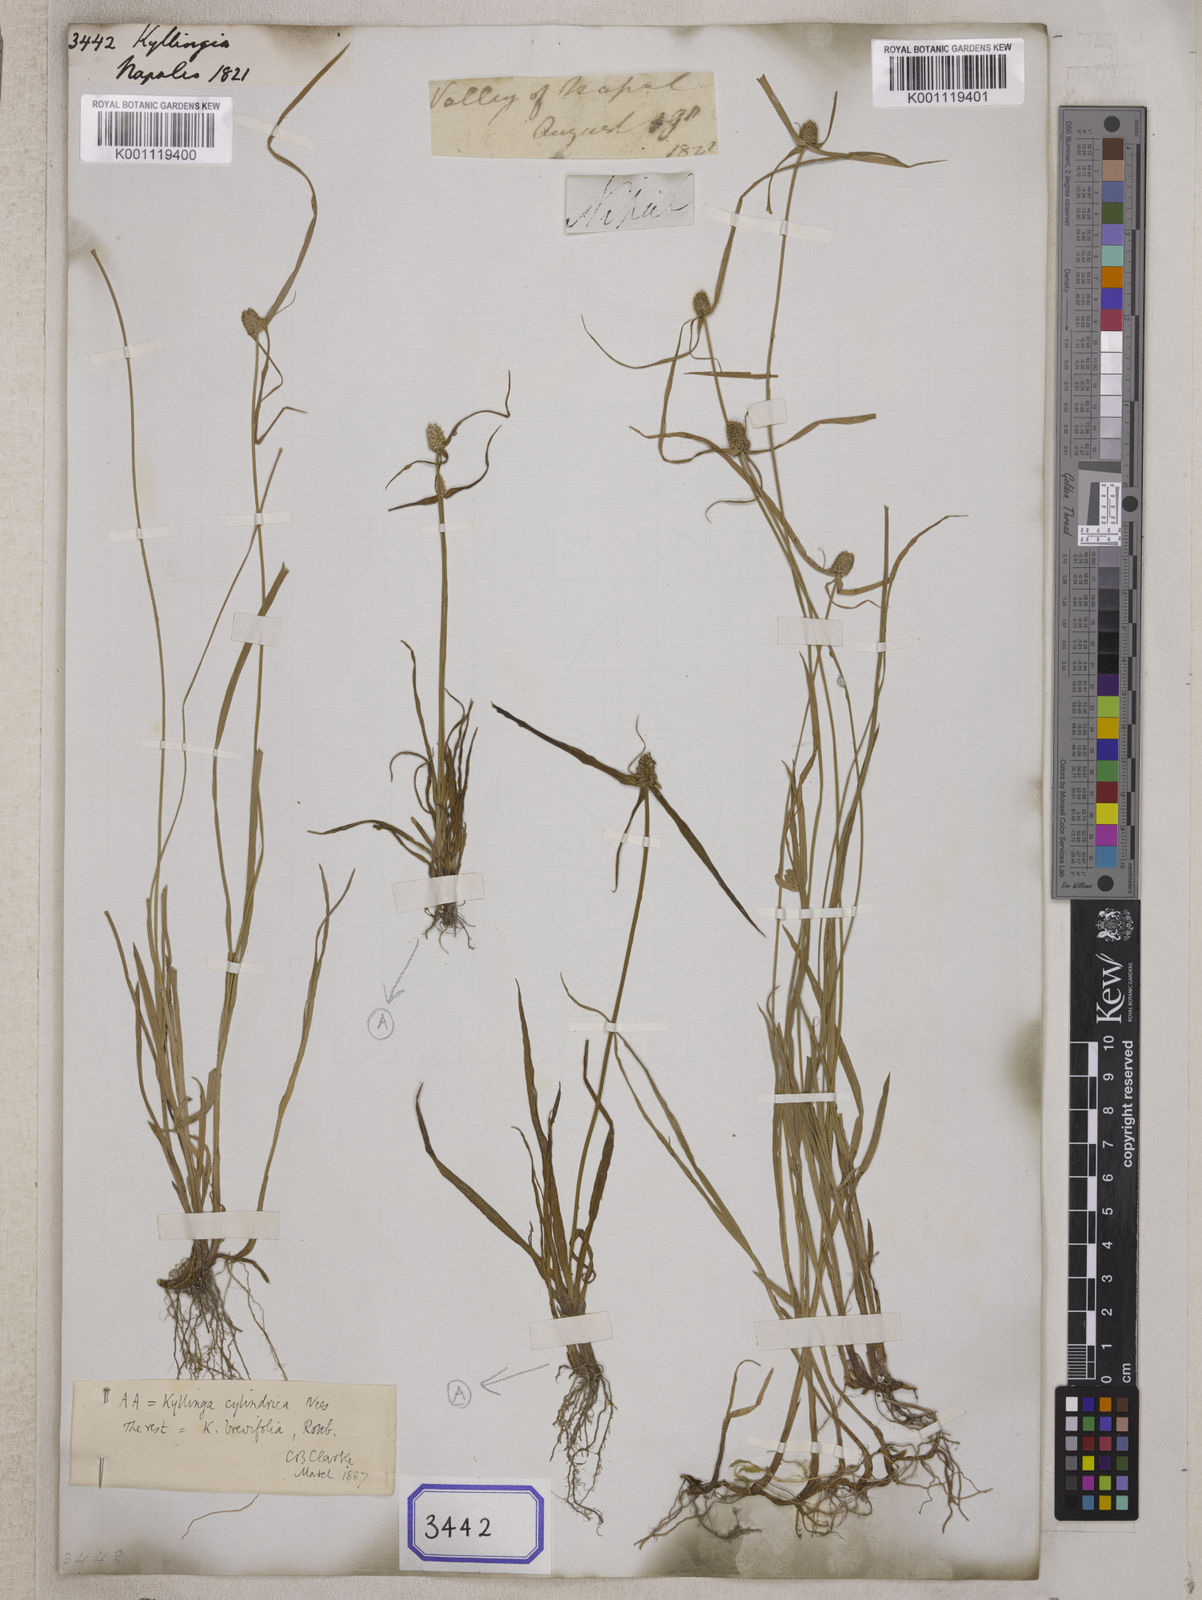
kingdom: Plantae
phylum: Tracheophyta
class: Liliopsida
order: Poales
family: Cyperaceae
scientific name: Cyperaceae
